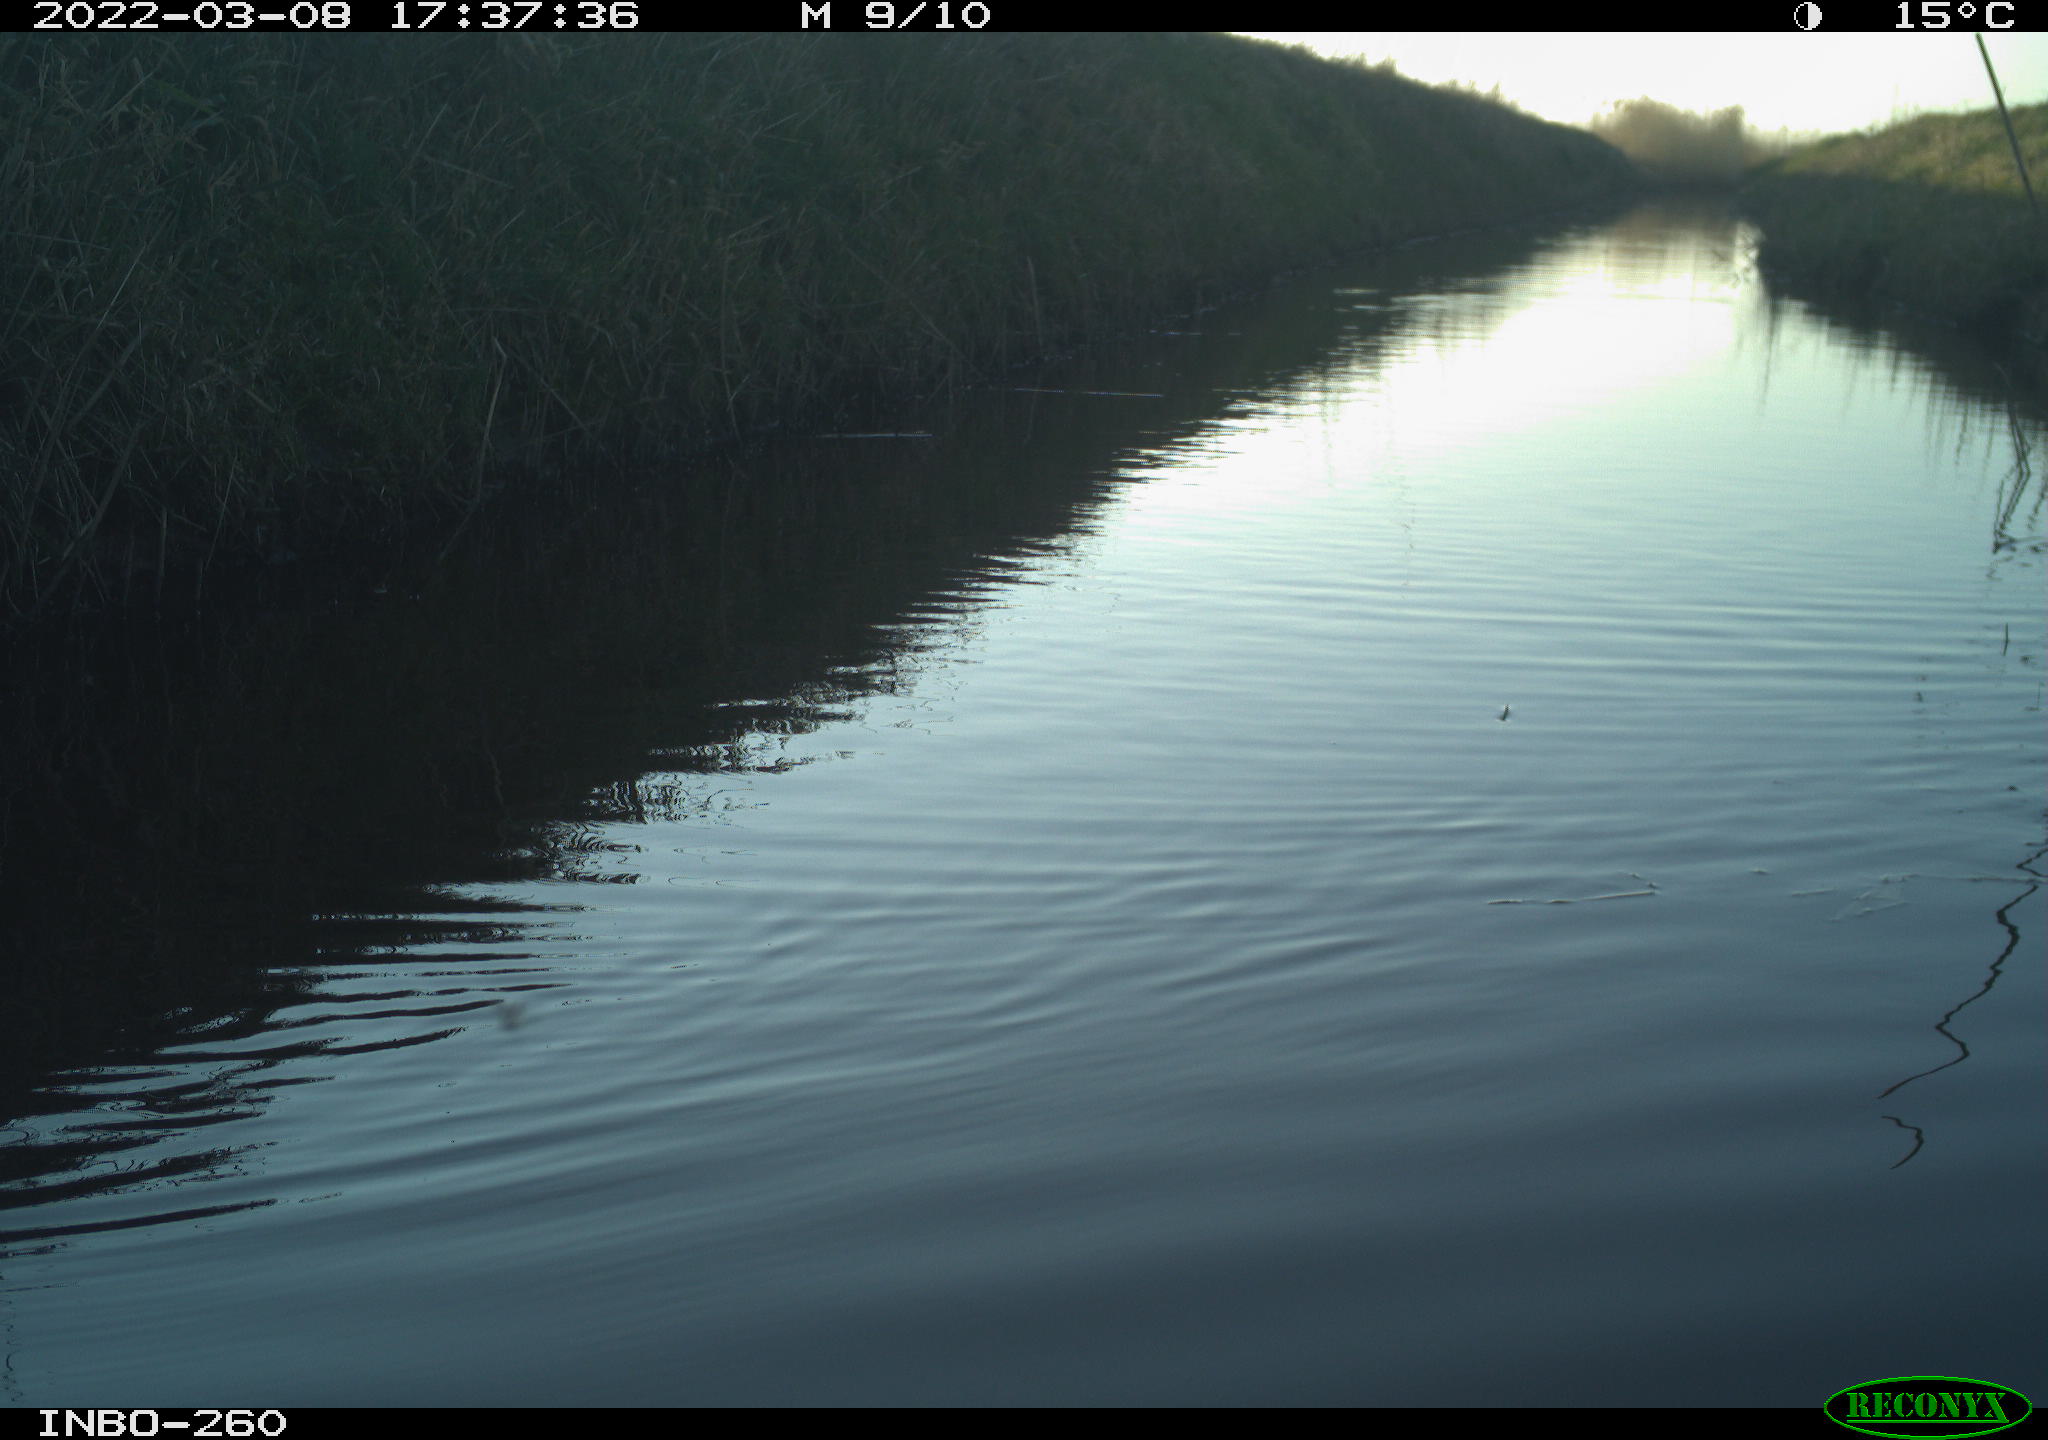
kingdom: Animalia
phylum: Chordata
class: Aves
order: Gruiformes
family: Rallidae
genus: Fulica
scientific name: Fulica atra
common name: Eurasian coot
